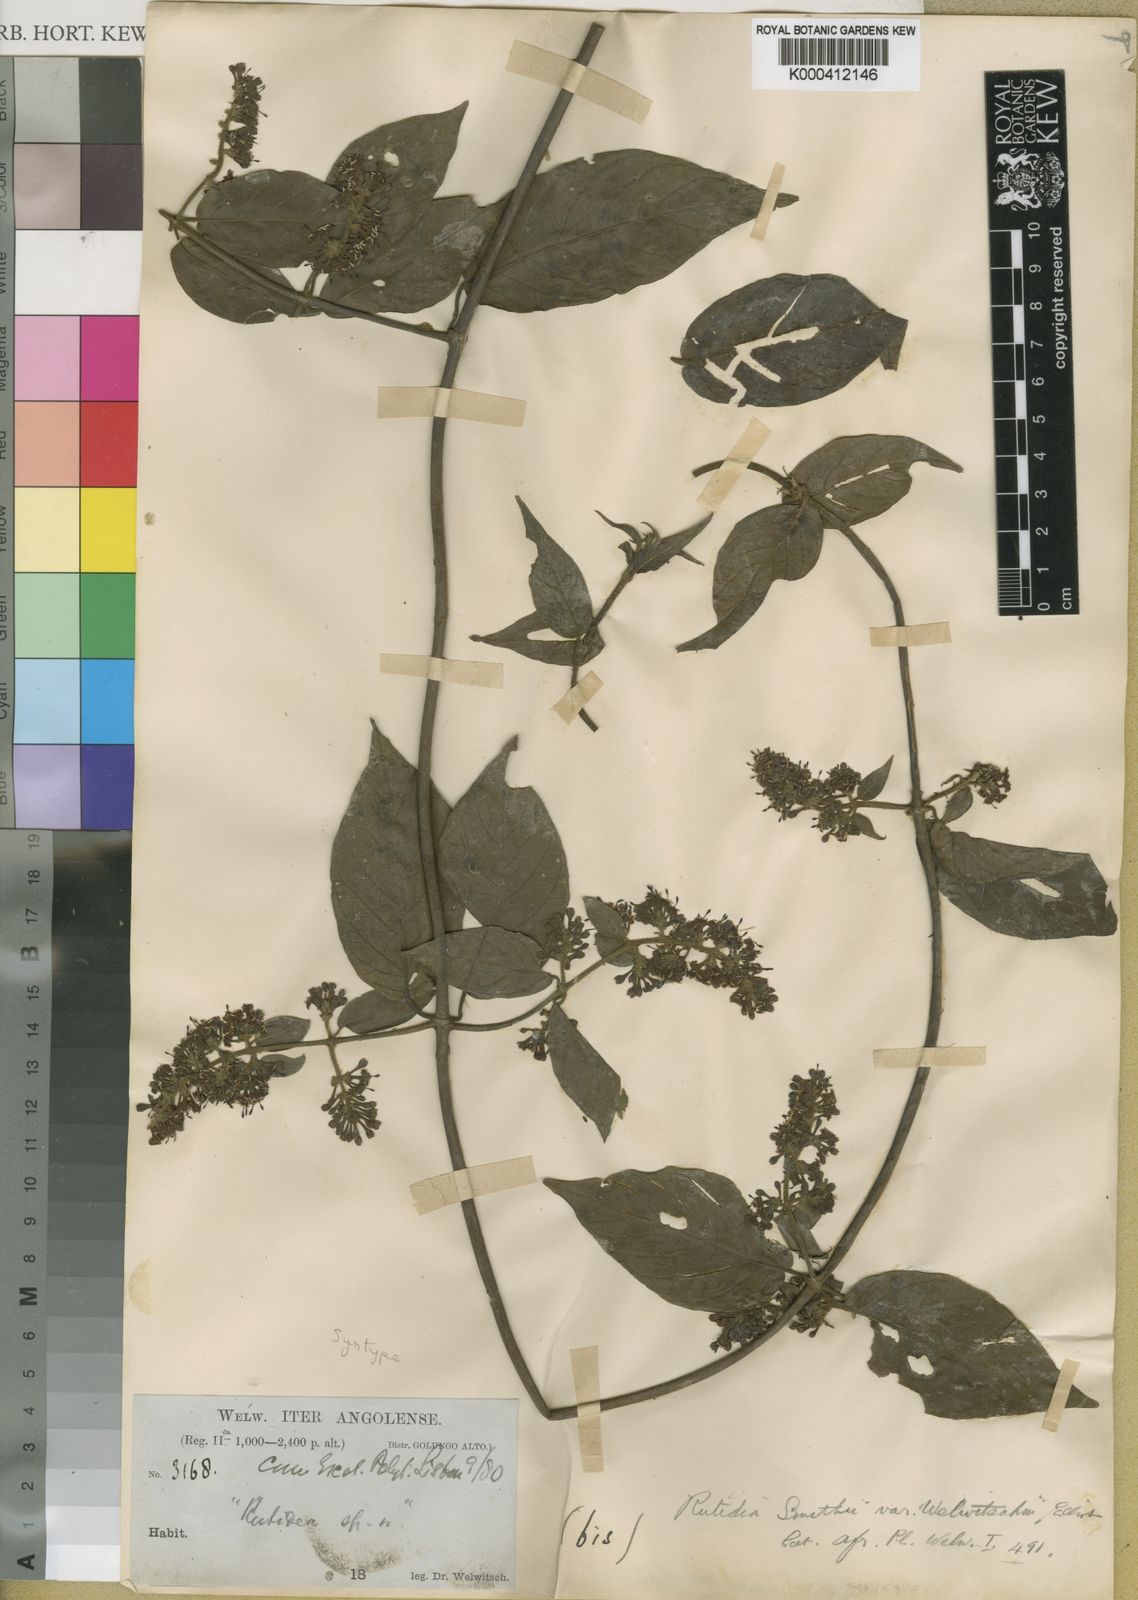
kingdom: Plantae
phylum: Tracheophyta
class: Magnoliopsida
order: Gentianales
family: Rubiaceae
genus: Rutidea
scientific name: Rutidea smithii
